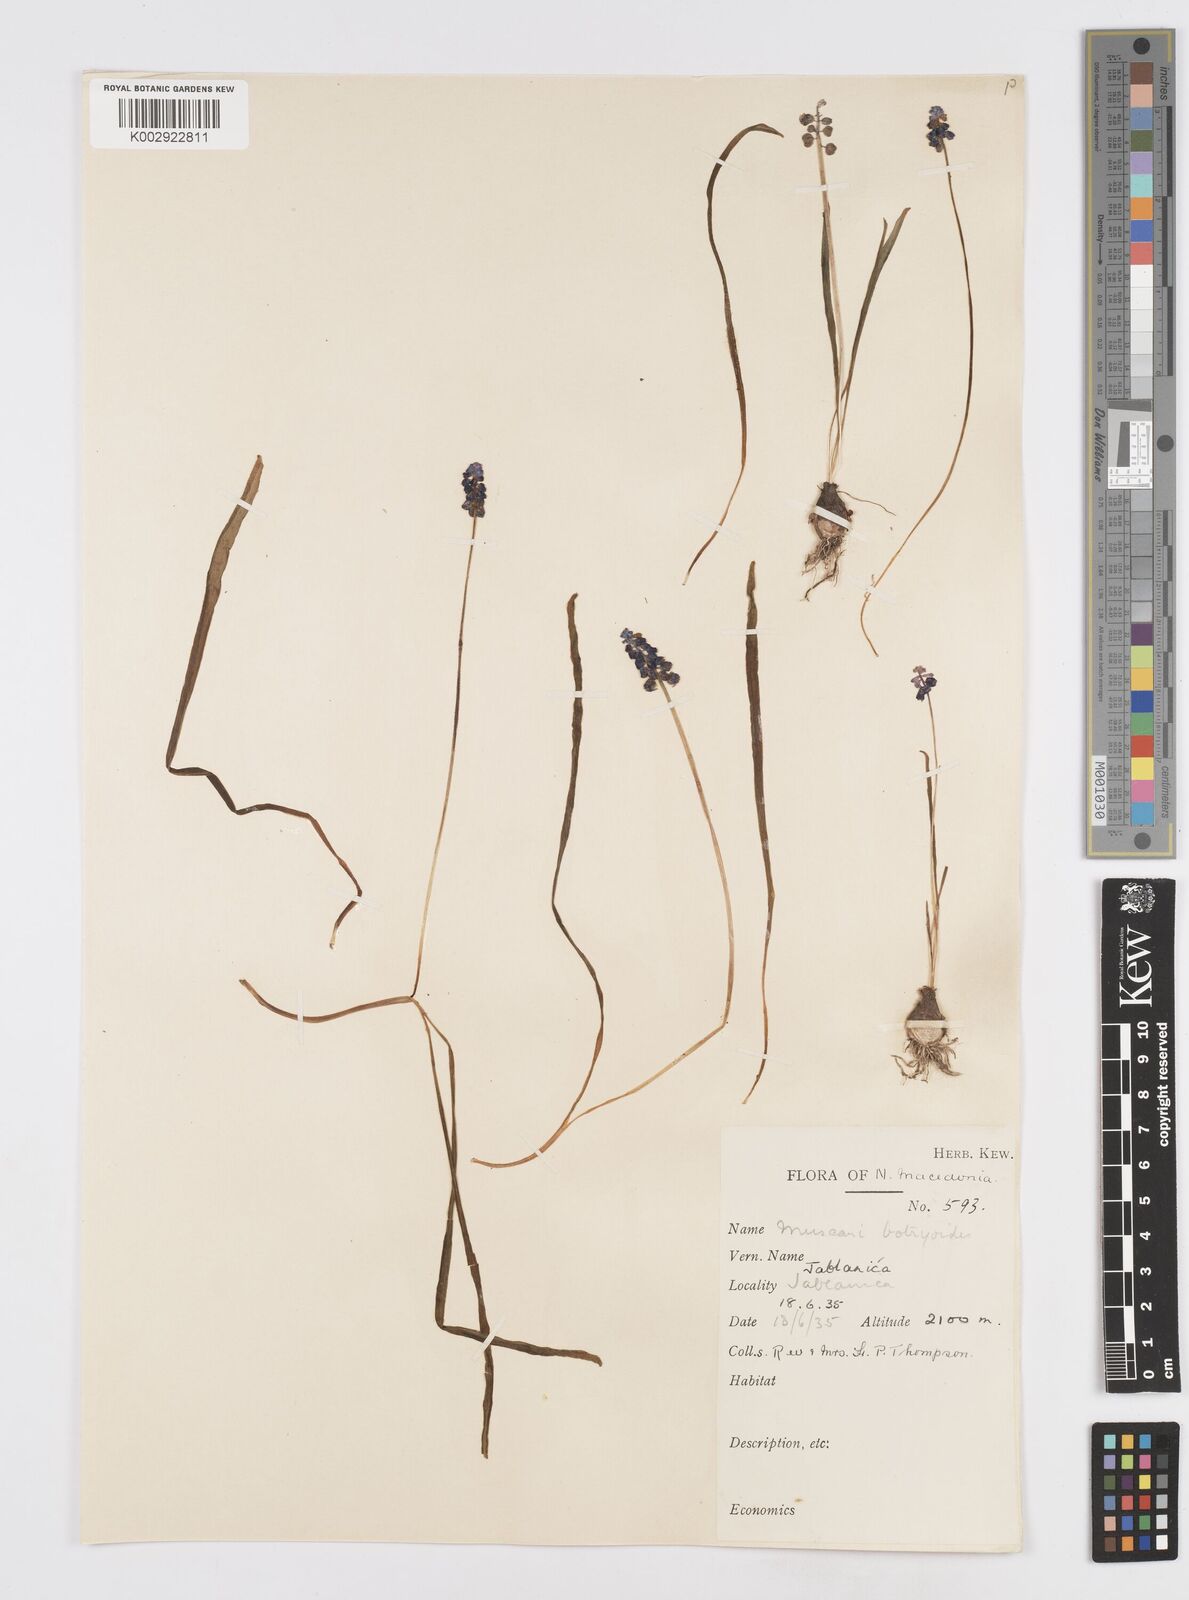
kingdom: Plantae
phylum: Tracheophyta
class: Liliopsida
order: Asparagales
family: Asparagaceae
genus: Muscari
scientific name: Muscari
